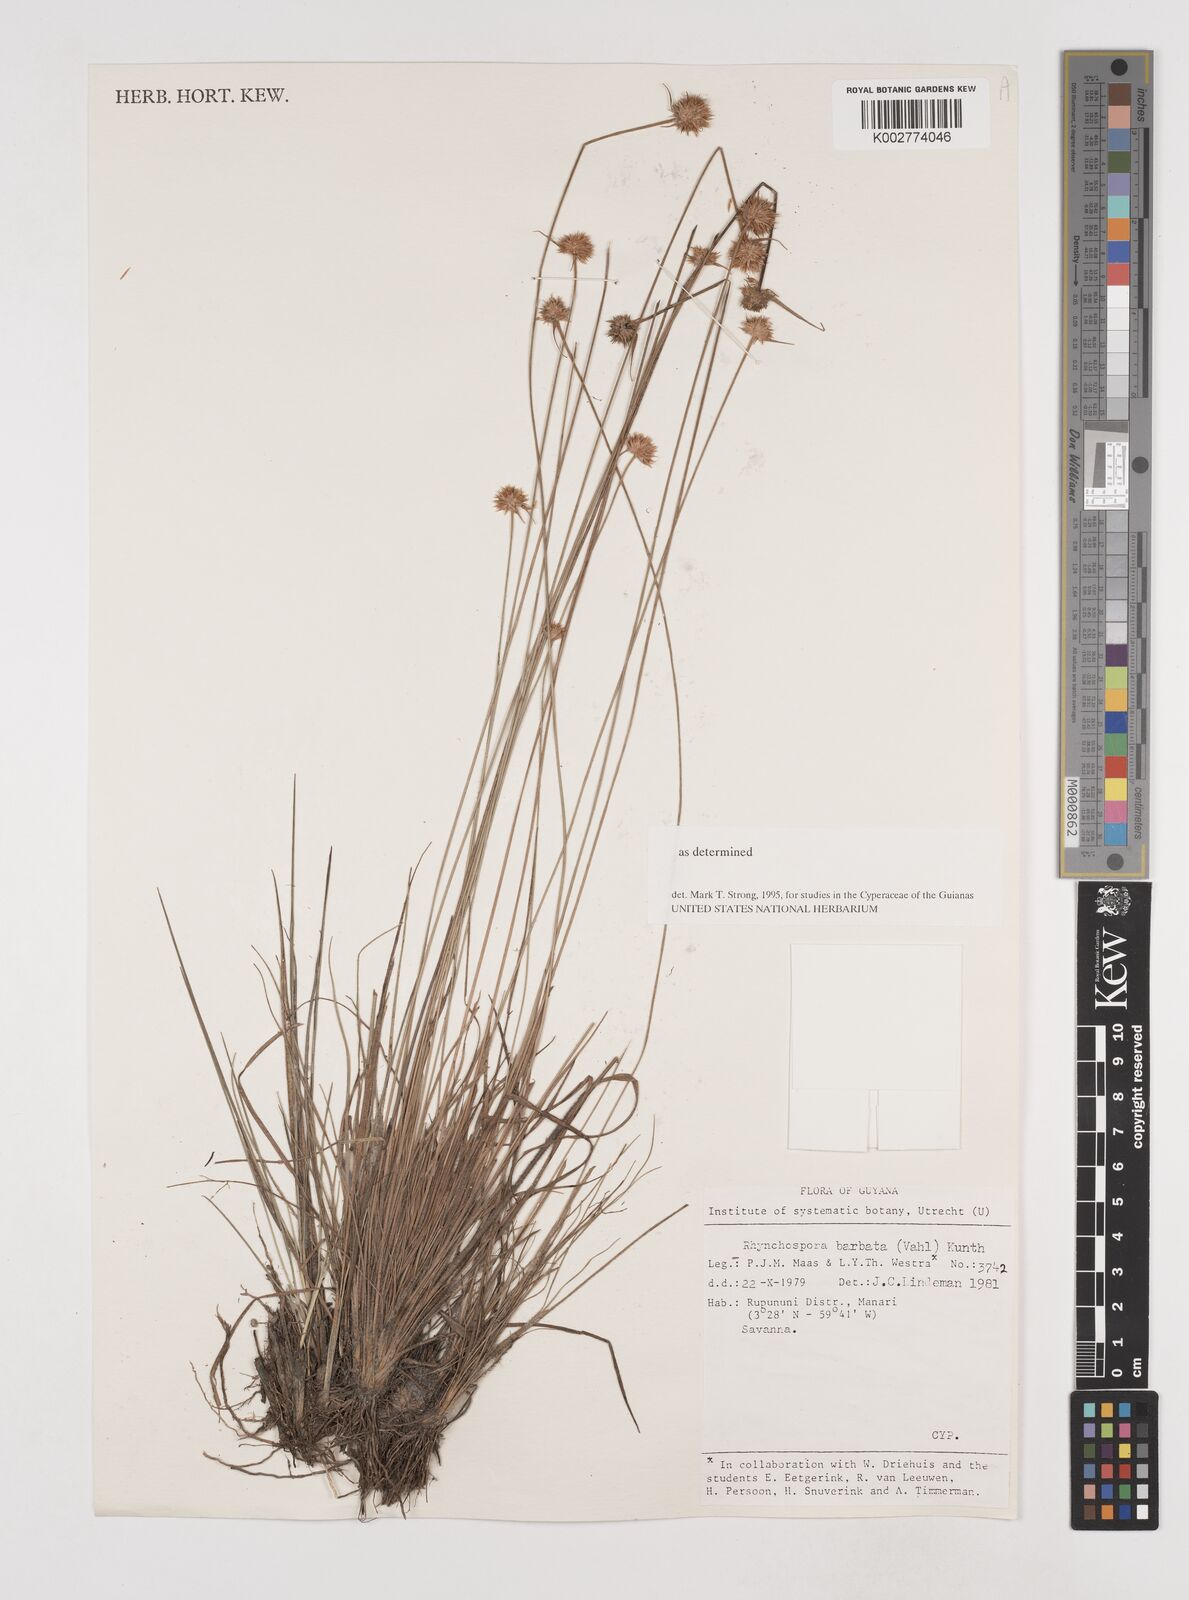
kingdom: Plantae
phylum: Tracheophyta
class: Liliopsida
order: Poales
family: Cyperaceae
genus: Rhynchospora
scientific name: Rhynchospora barbata
